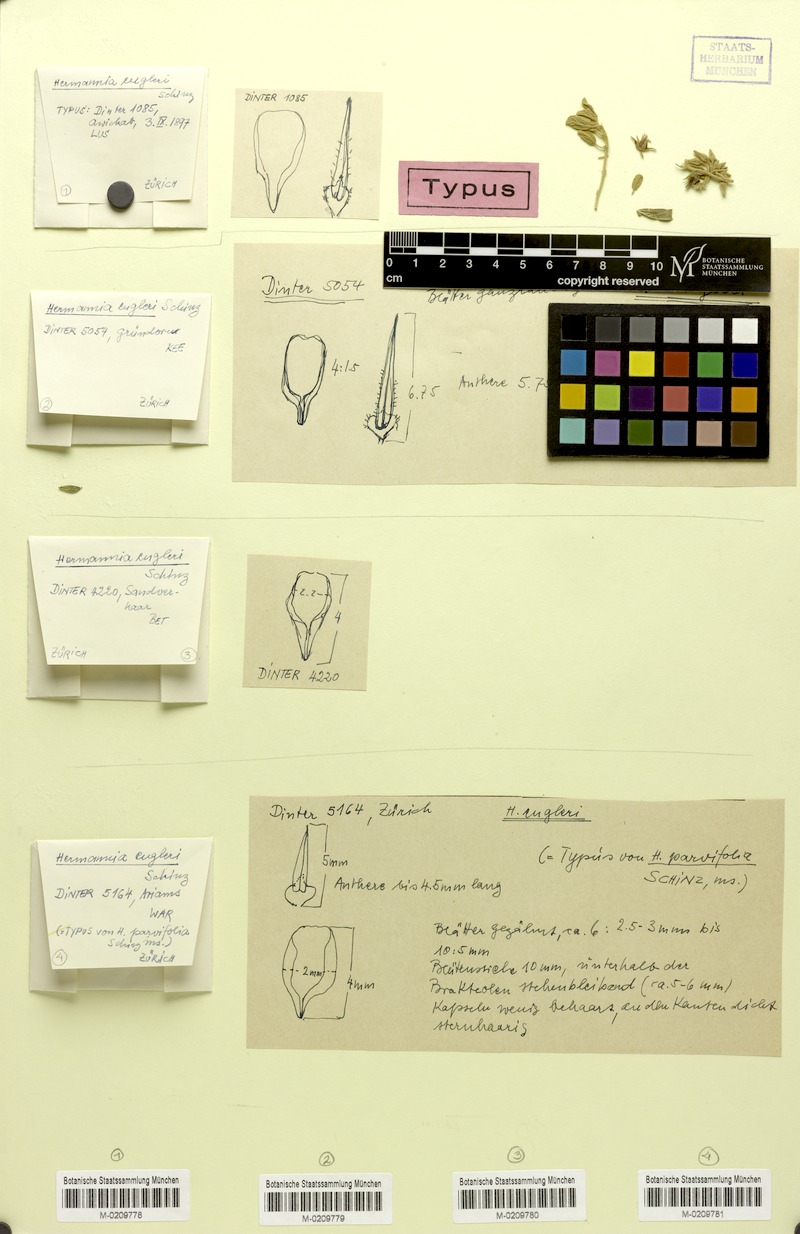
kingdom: Plantae
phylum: Tracheophyta
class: Magnoliopsida
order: Malvales
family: Malvaceae
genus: Hermannia
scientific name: Hermannia engleri
